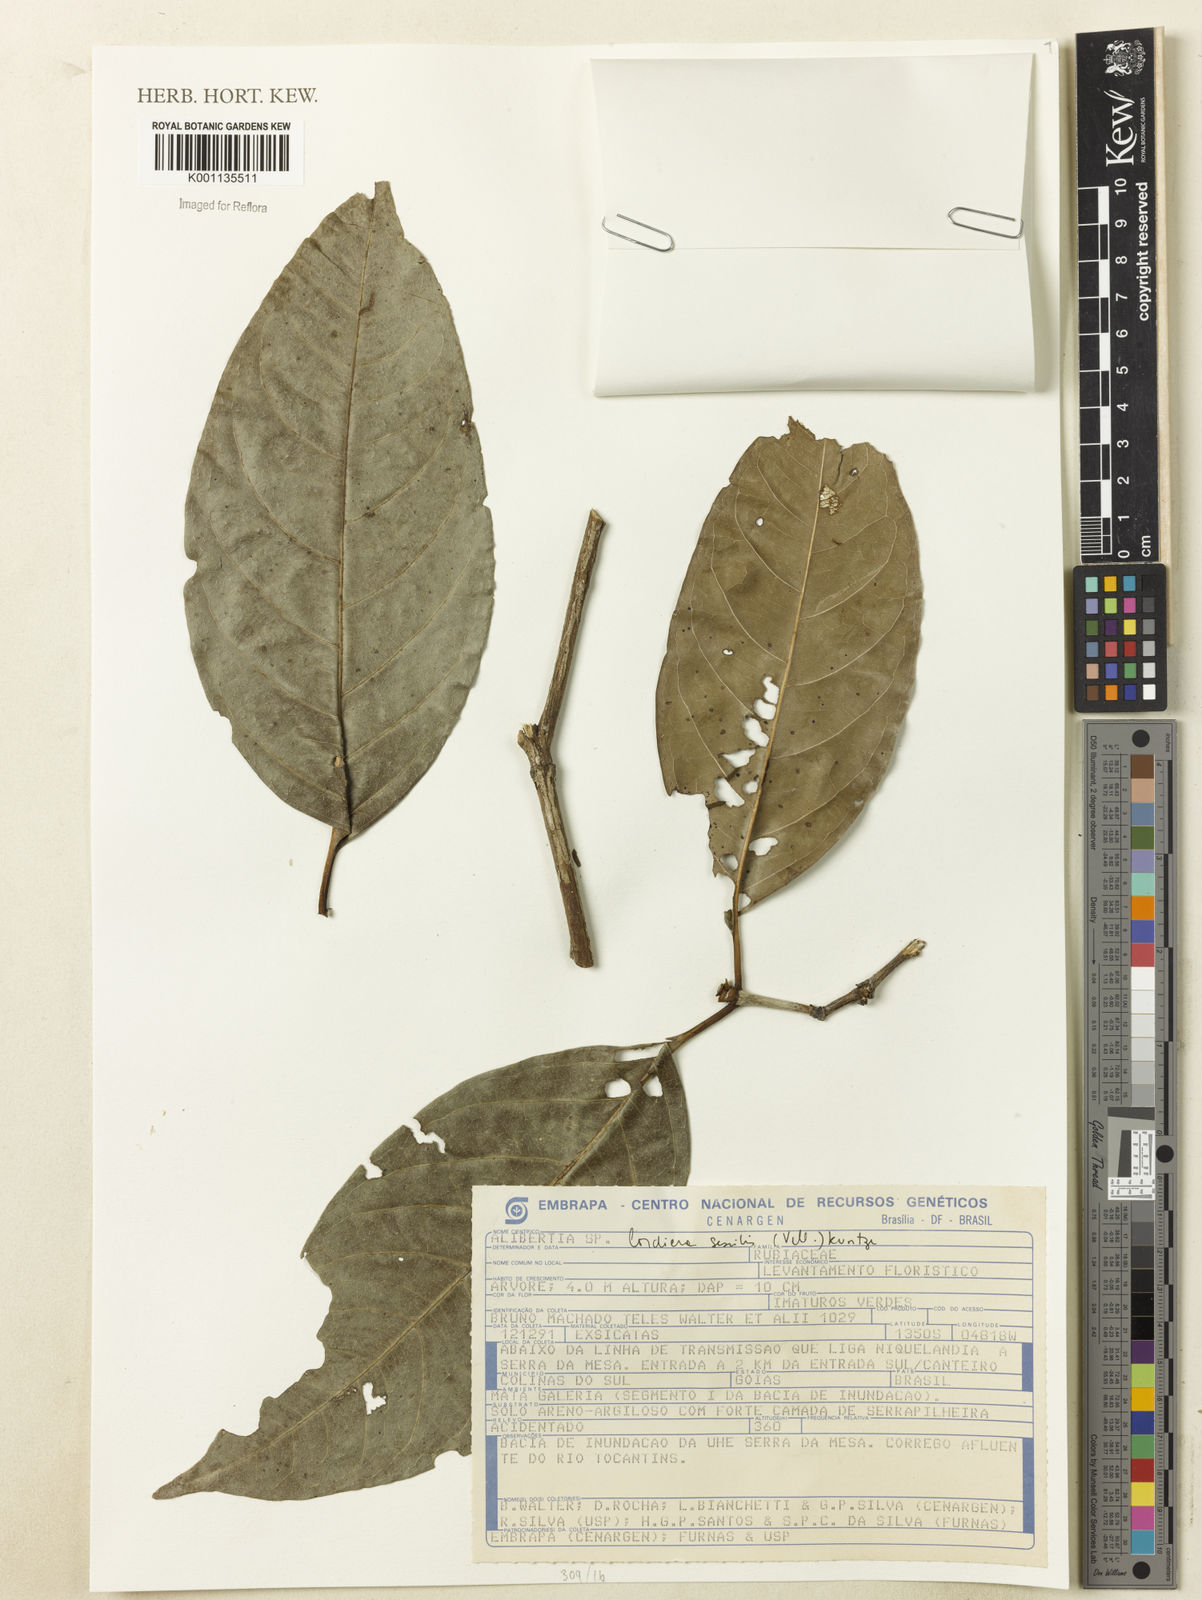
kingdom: Plantae
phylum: Tracheophyta
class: Magnoliopsida
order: Gentianales
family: Rubiaceae
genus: Cordiera
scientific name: Cordiera sessilis
